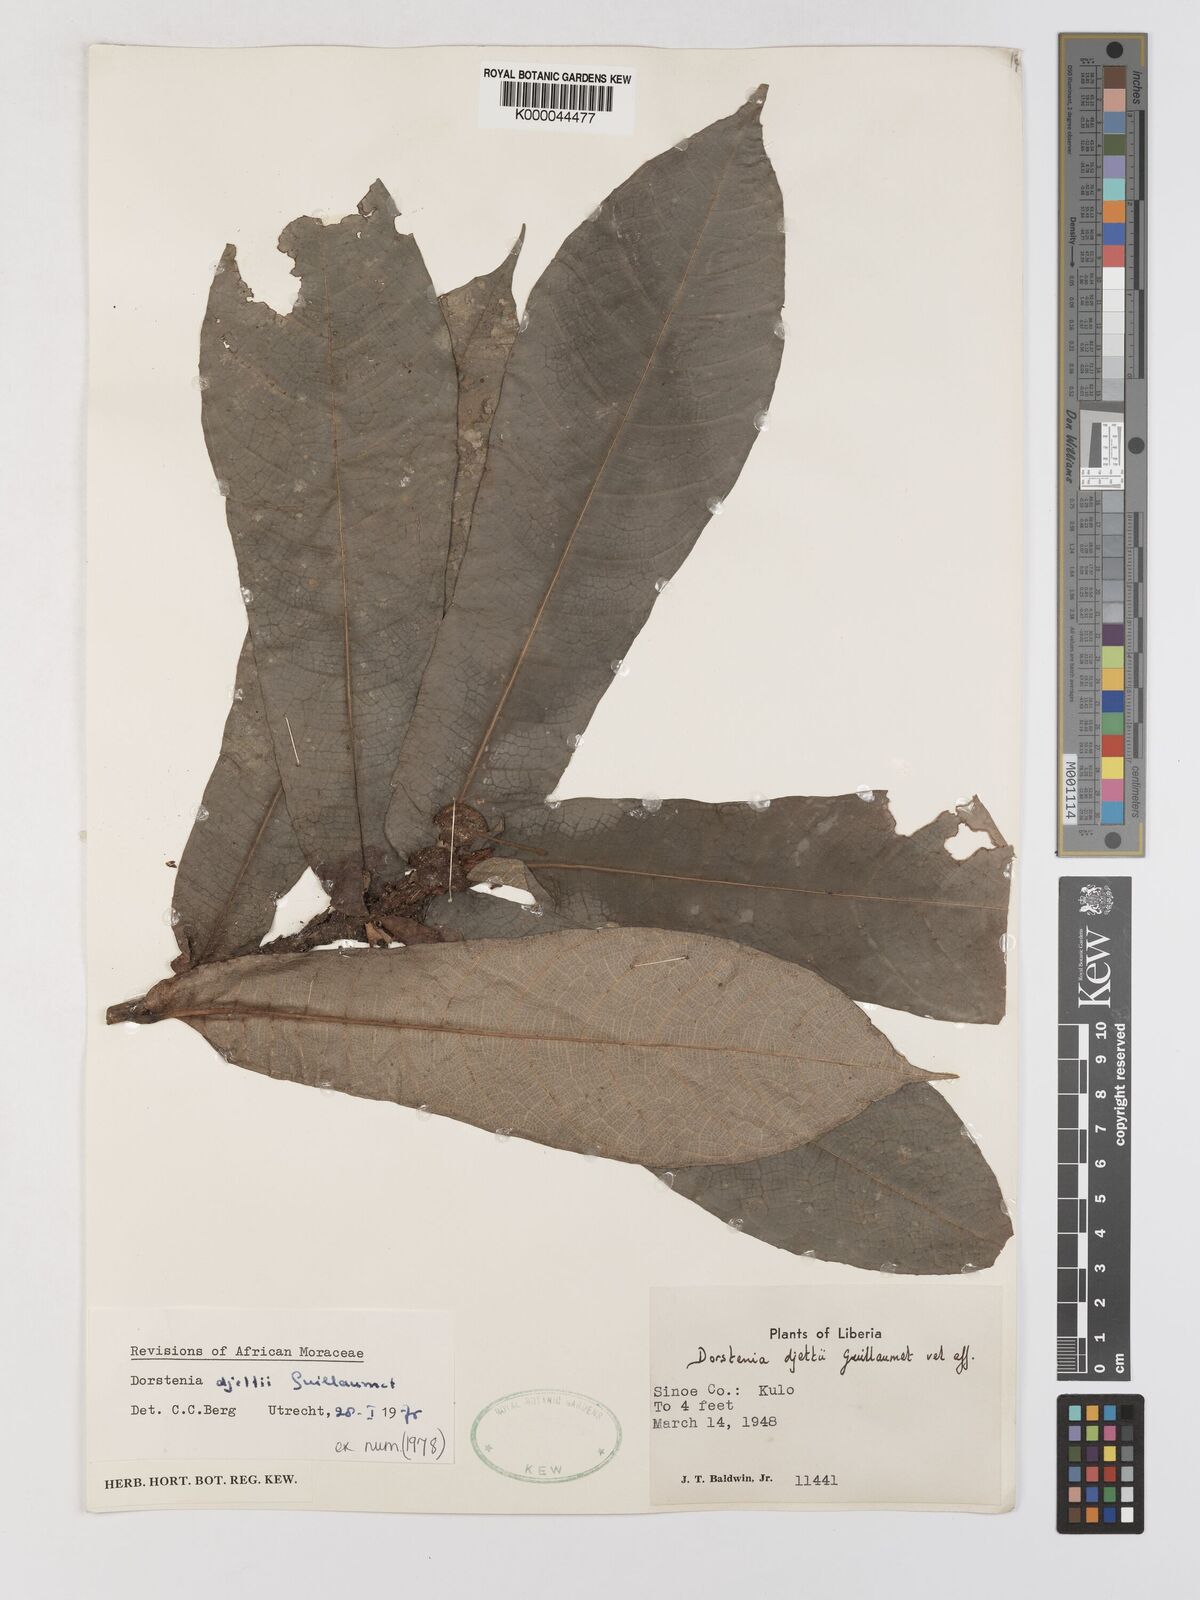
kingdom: Plantae
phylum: Tracheophyta
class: Magnoliopsida
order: Rosales
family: Moraceae
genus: Dorstenia
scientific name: Dorstenia djettii
